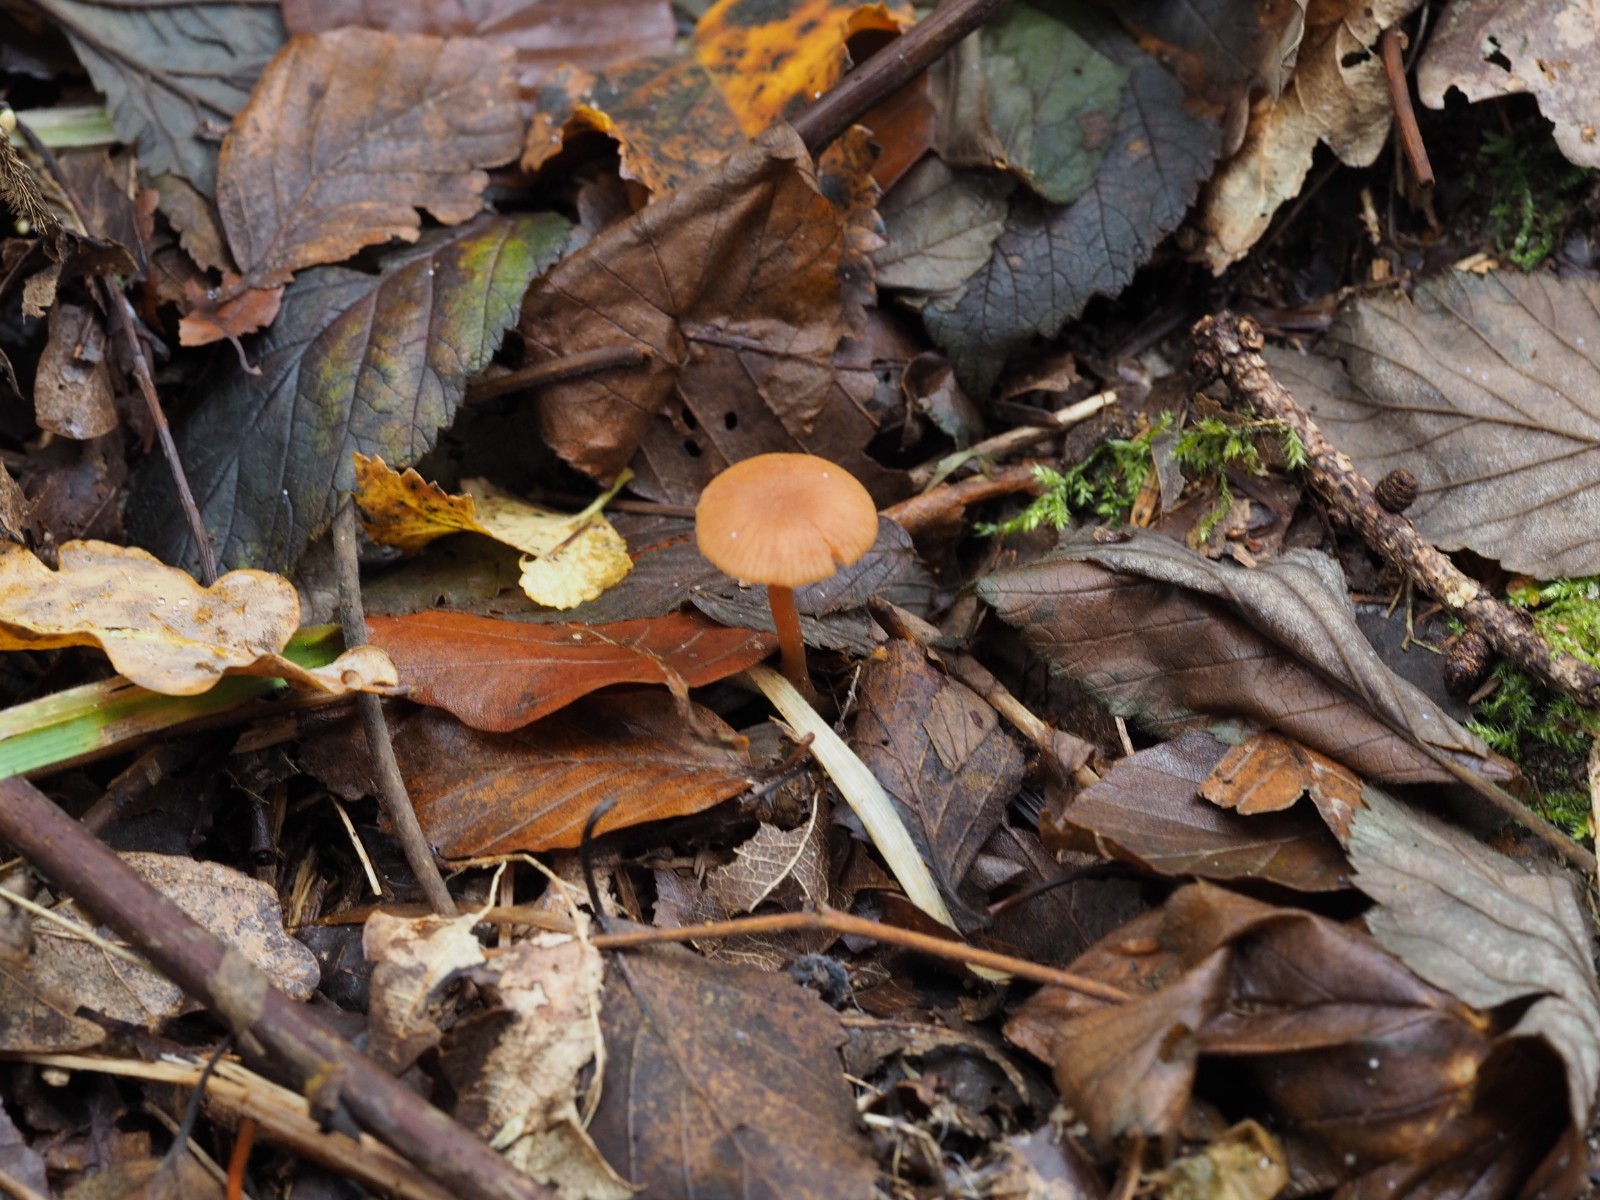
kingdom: Fungi
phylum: Basidiomycota
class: Agaricomycetes
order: Agaricales
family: Hydnangiaceae
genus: Laccaria
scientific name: Laccaria laccata
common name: rød ametysthat
